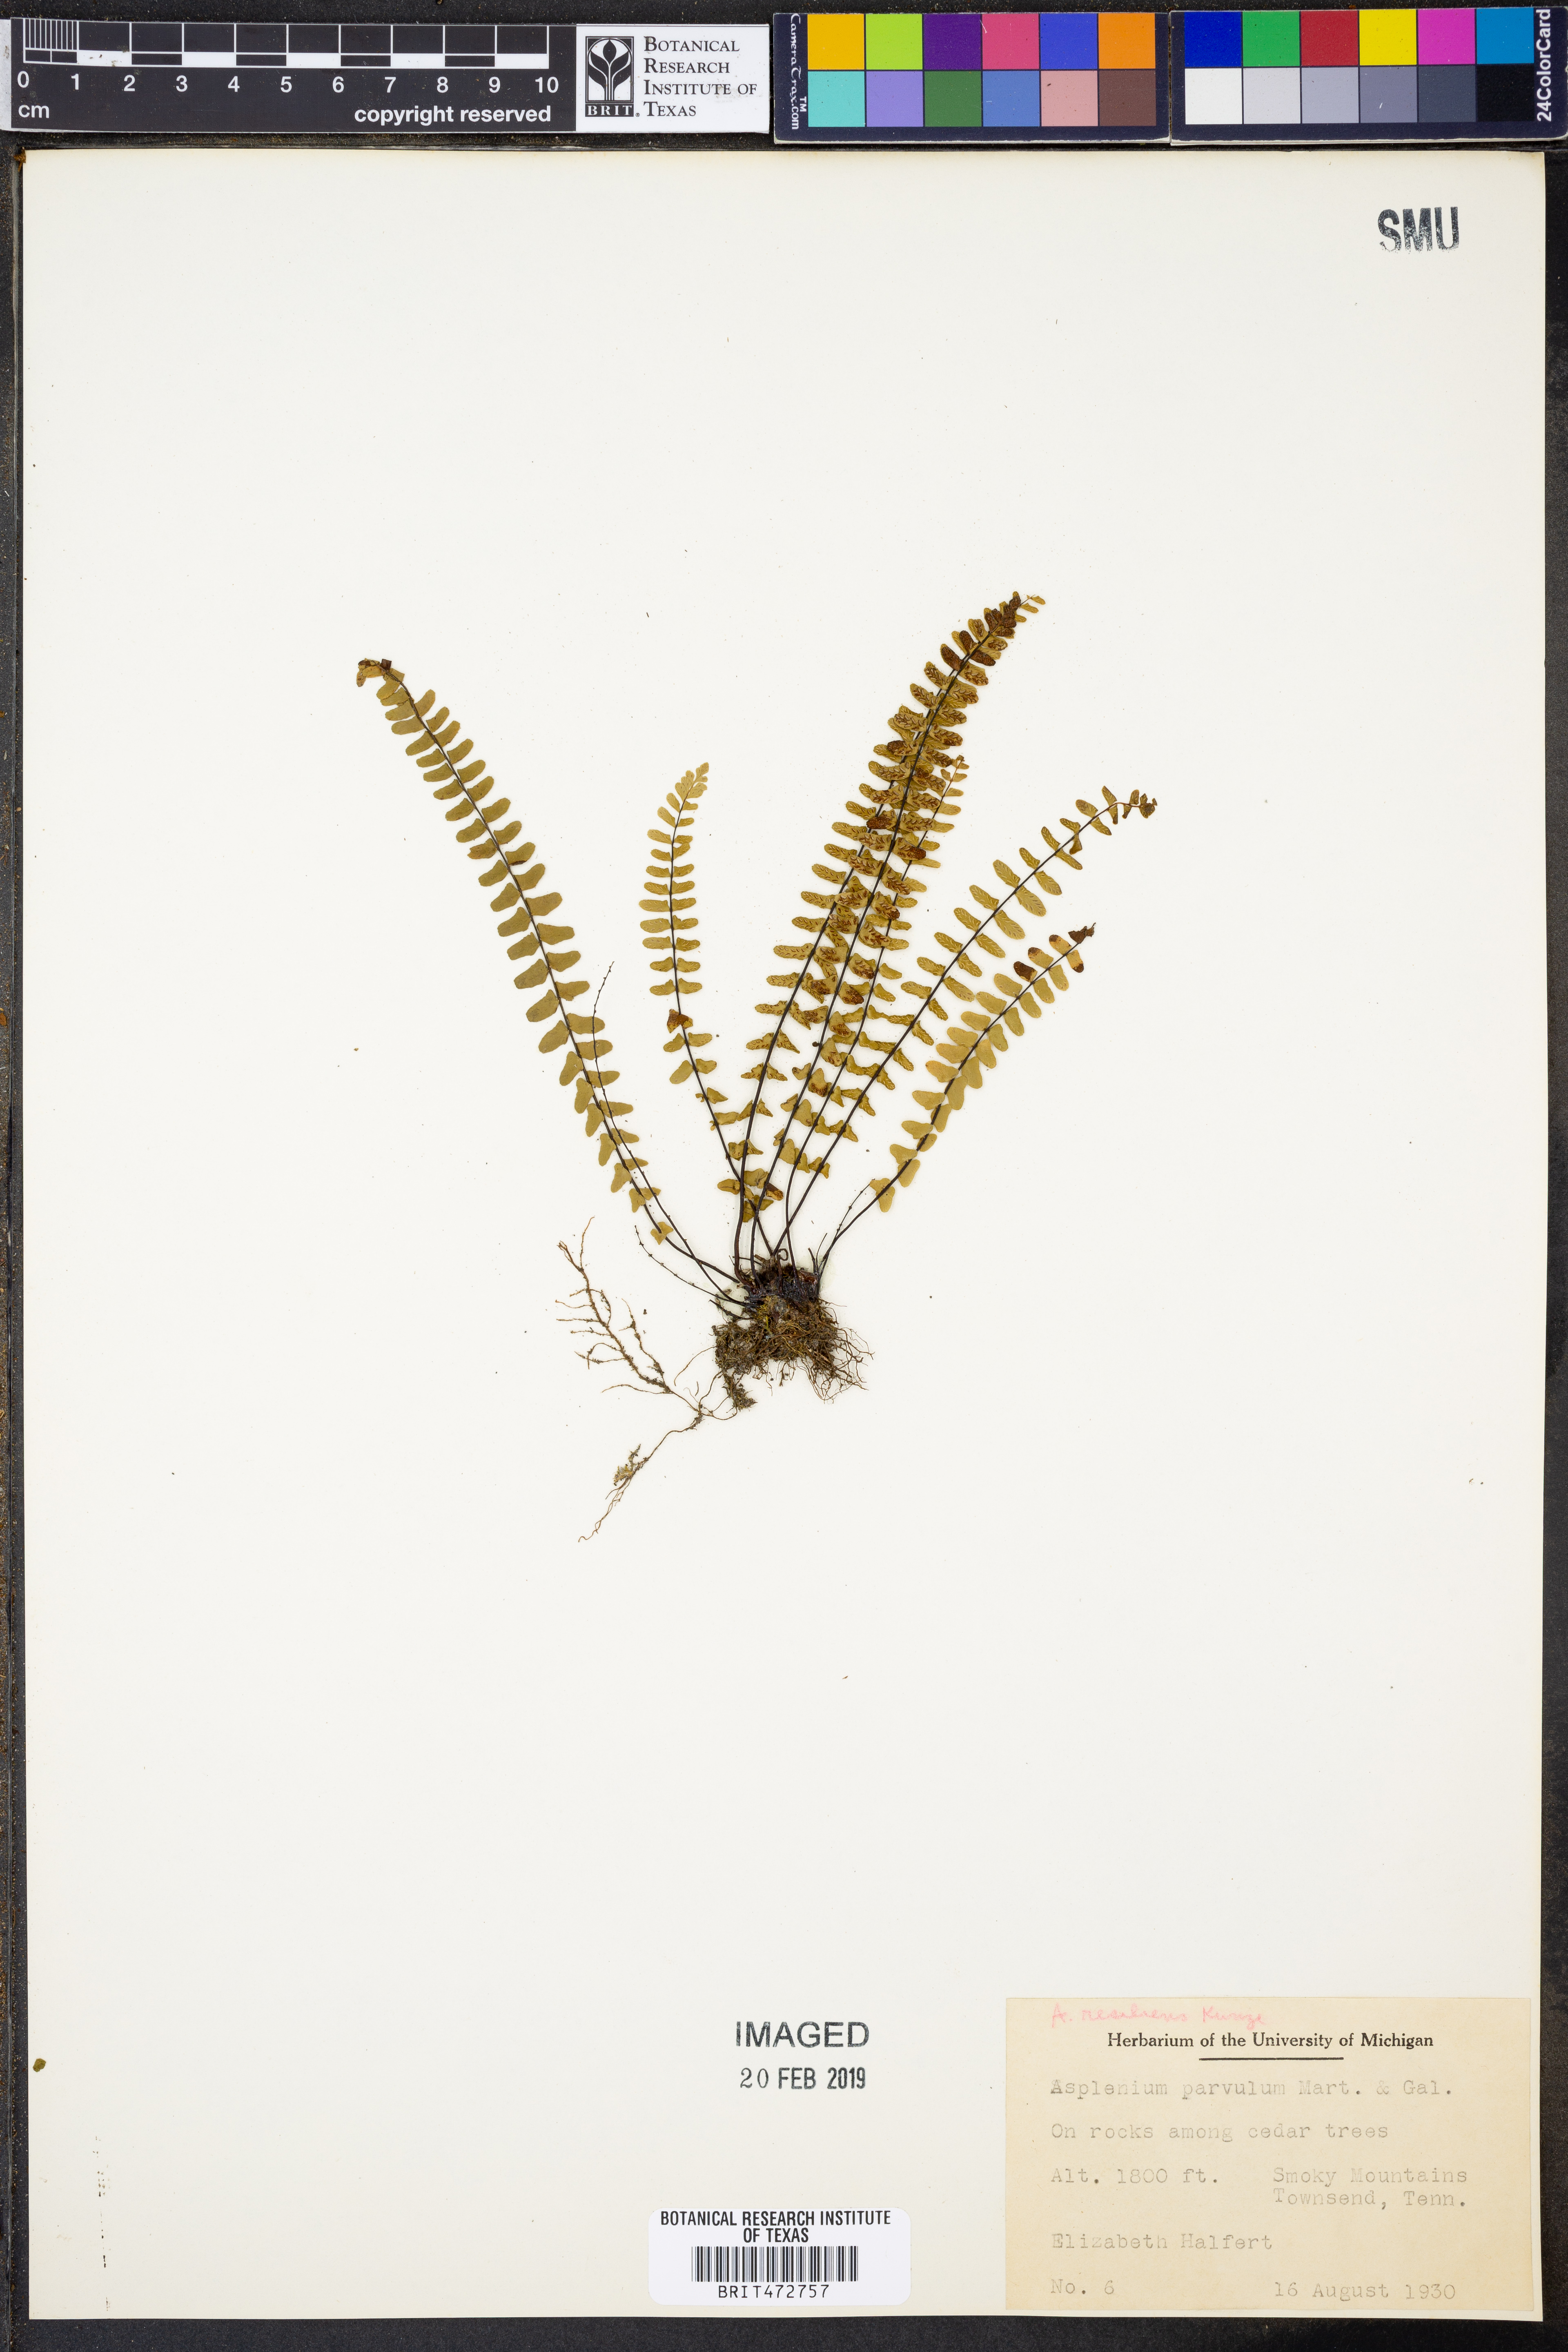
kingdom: Plantae
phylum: Tracheophyta
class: Polypodiopsida
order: Polypodiales
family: Aspleniaceae
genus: Asplenium
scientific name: Asplenium laciniatum
